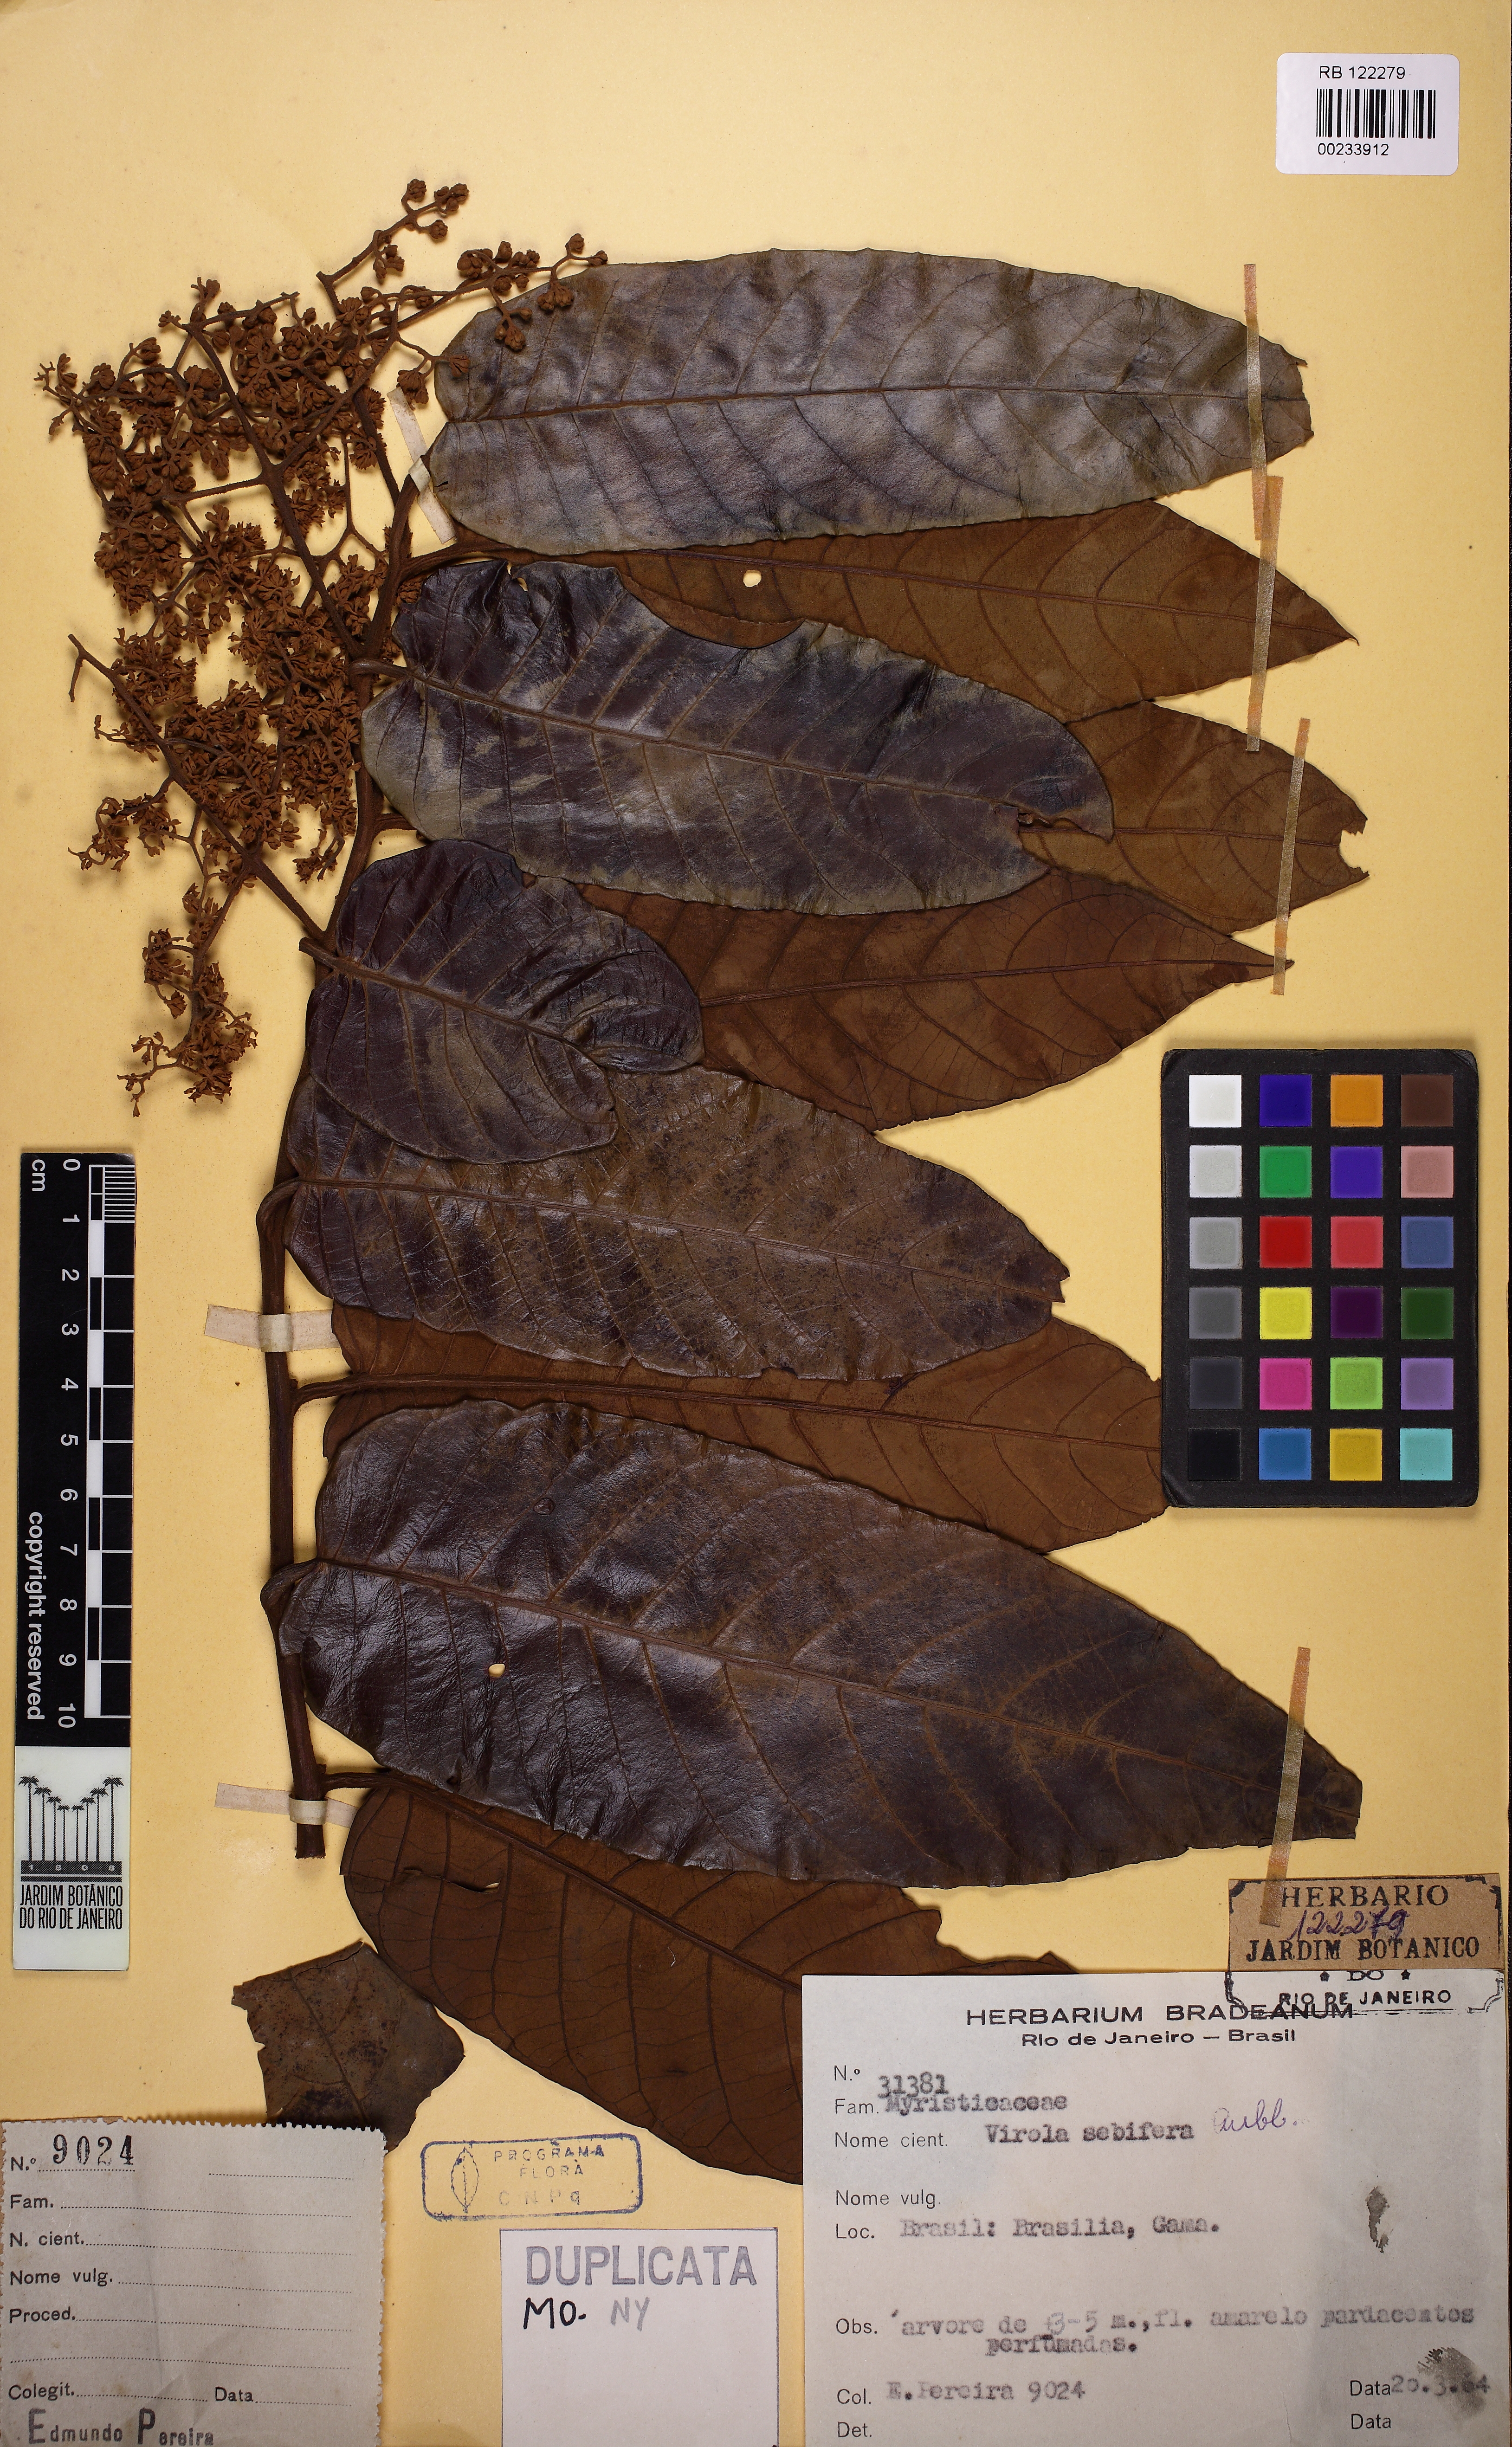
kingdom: Plantae
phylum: Tracheophyta
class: Magnoliopsida
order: Magnoliales
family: Myristicaceae
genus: Virola
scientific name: Virola sebifera
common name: Red ucuuba
